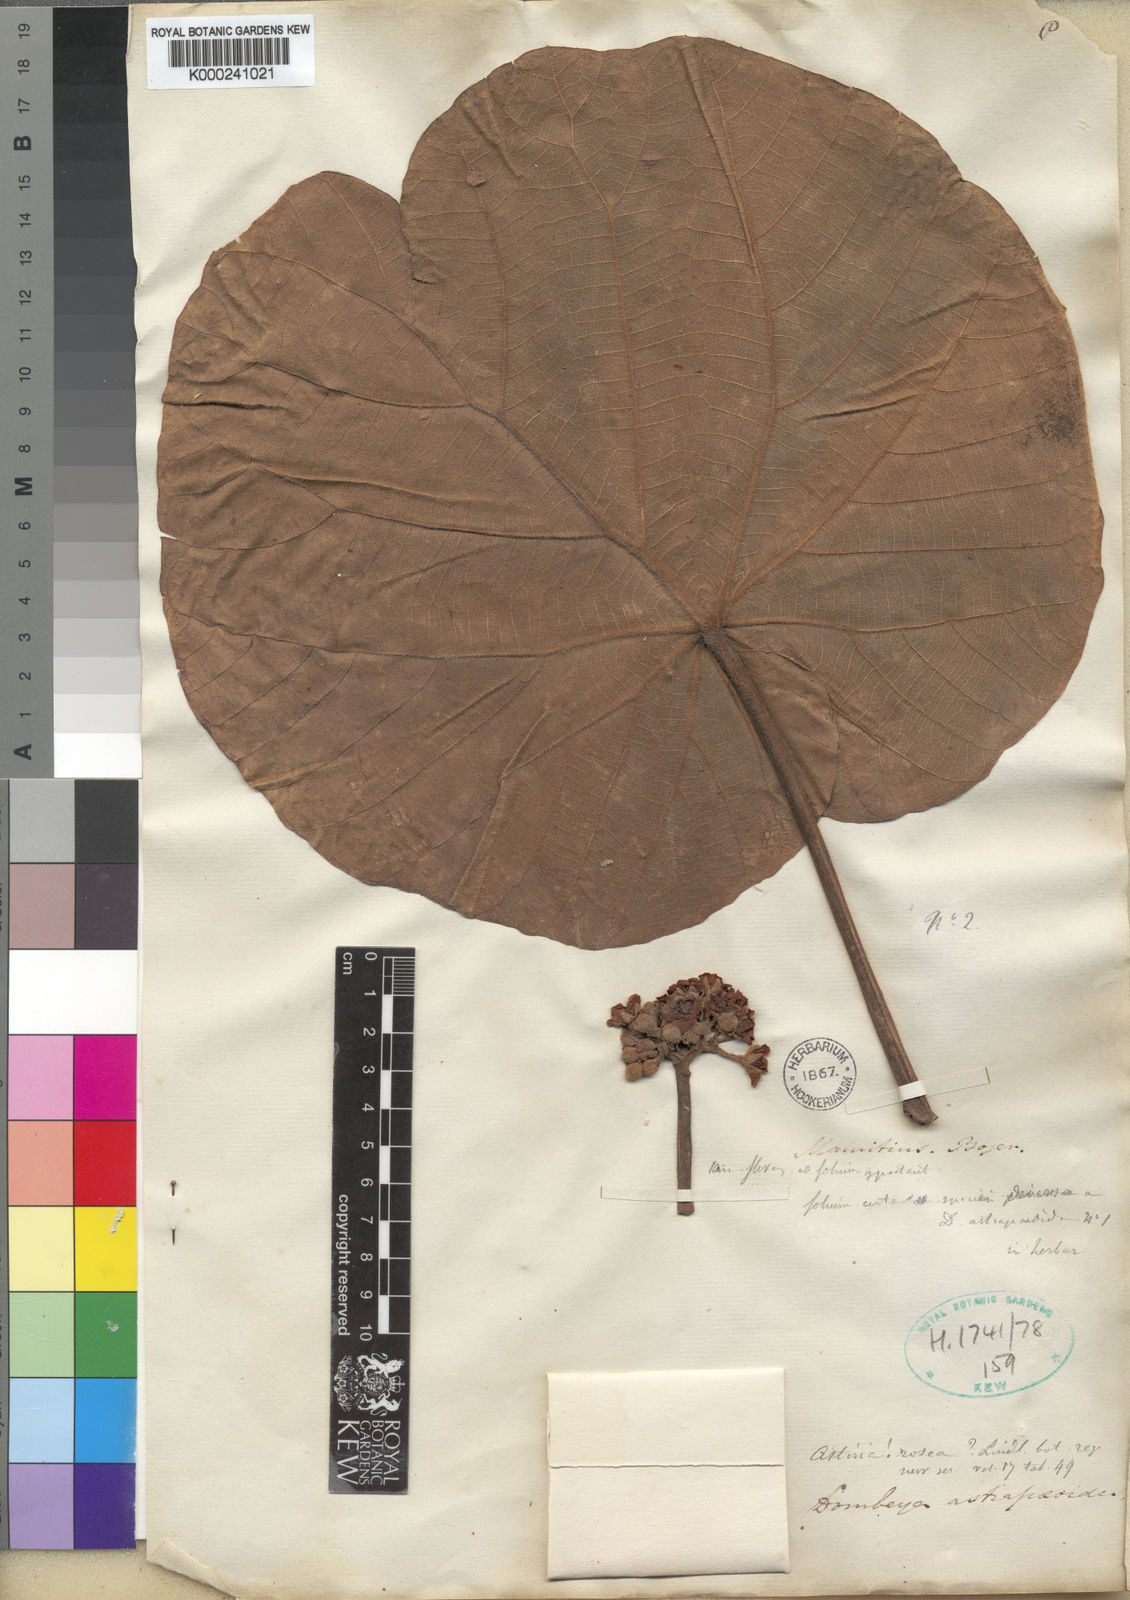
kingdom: Animalia
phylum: Arthropoda
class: Insecta
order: Hymenoptera
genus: Astiria
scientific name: Astiria
